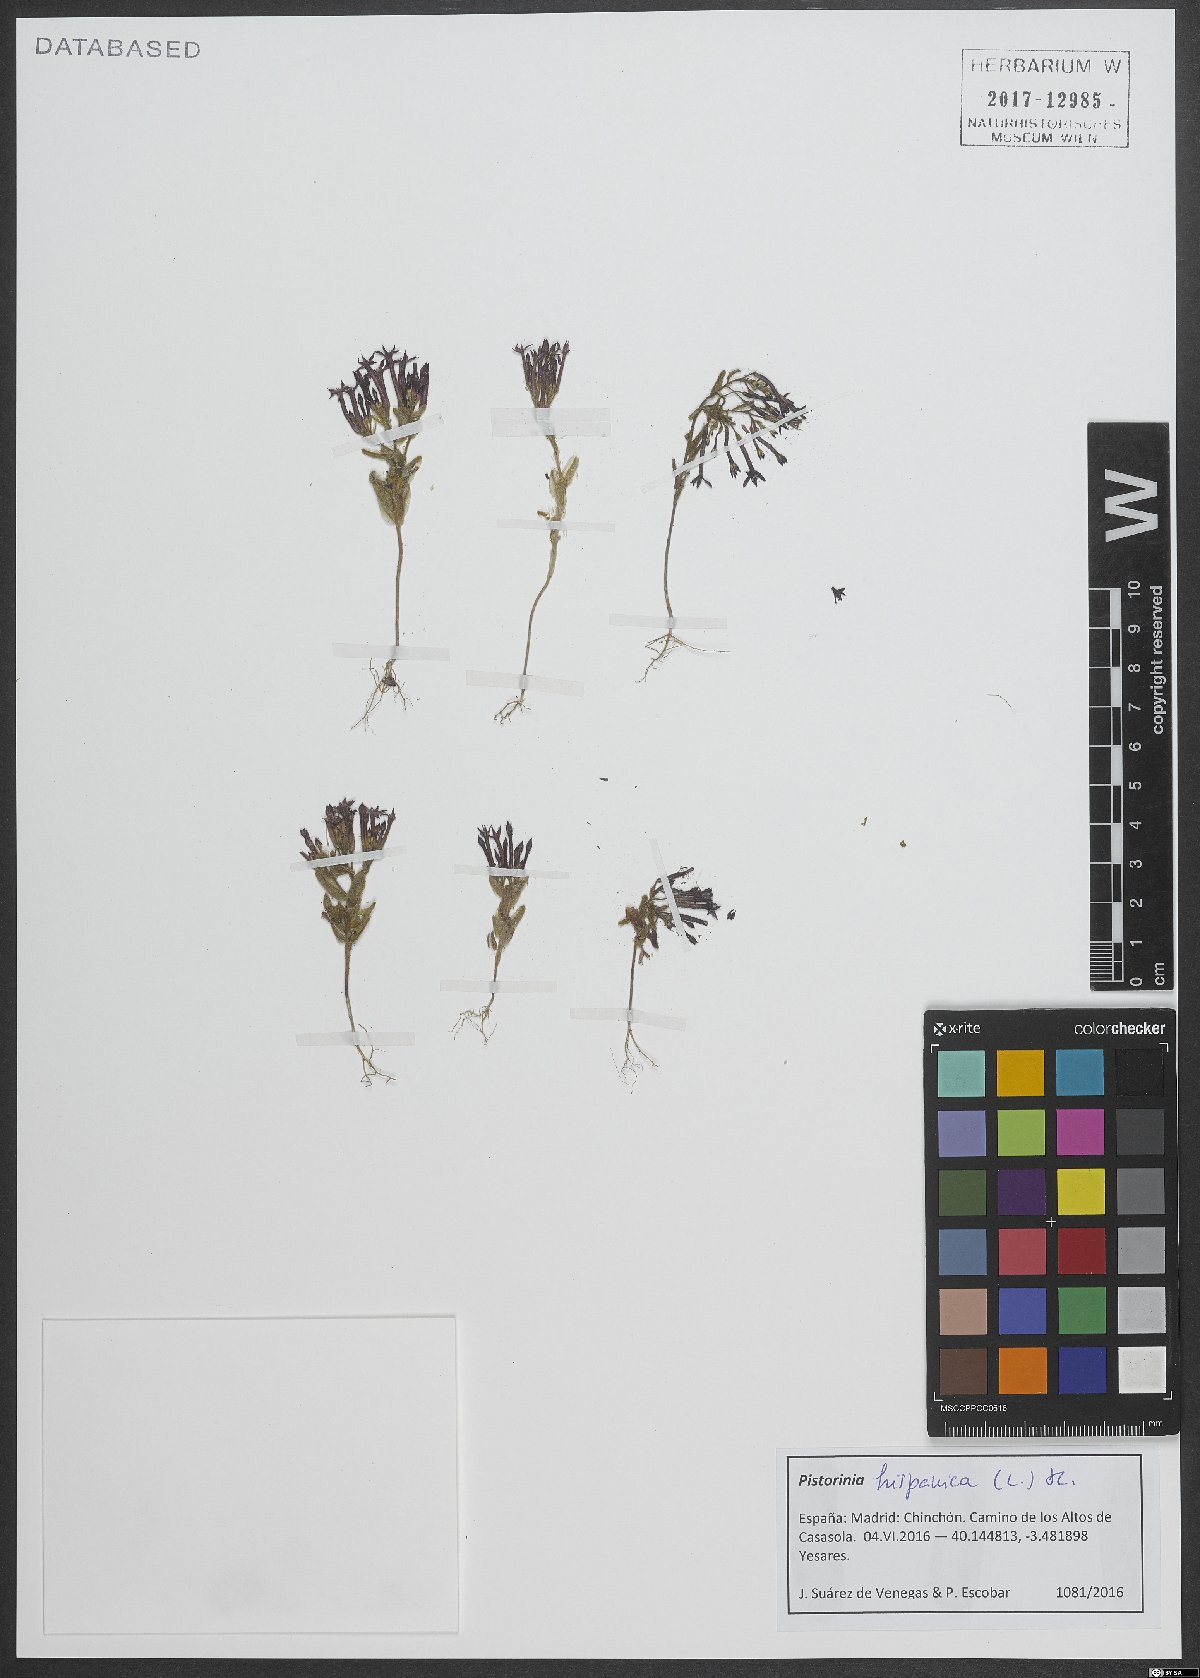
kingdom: Plantae
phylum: Tracheophyta
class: Magnoliopsida
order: Saxifragales
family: Crassulaceae
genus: Pistorinia
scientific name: Pistorinia hispanica
